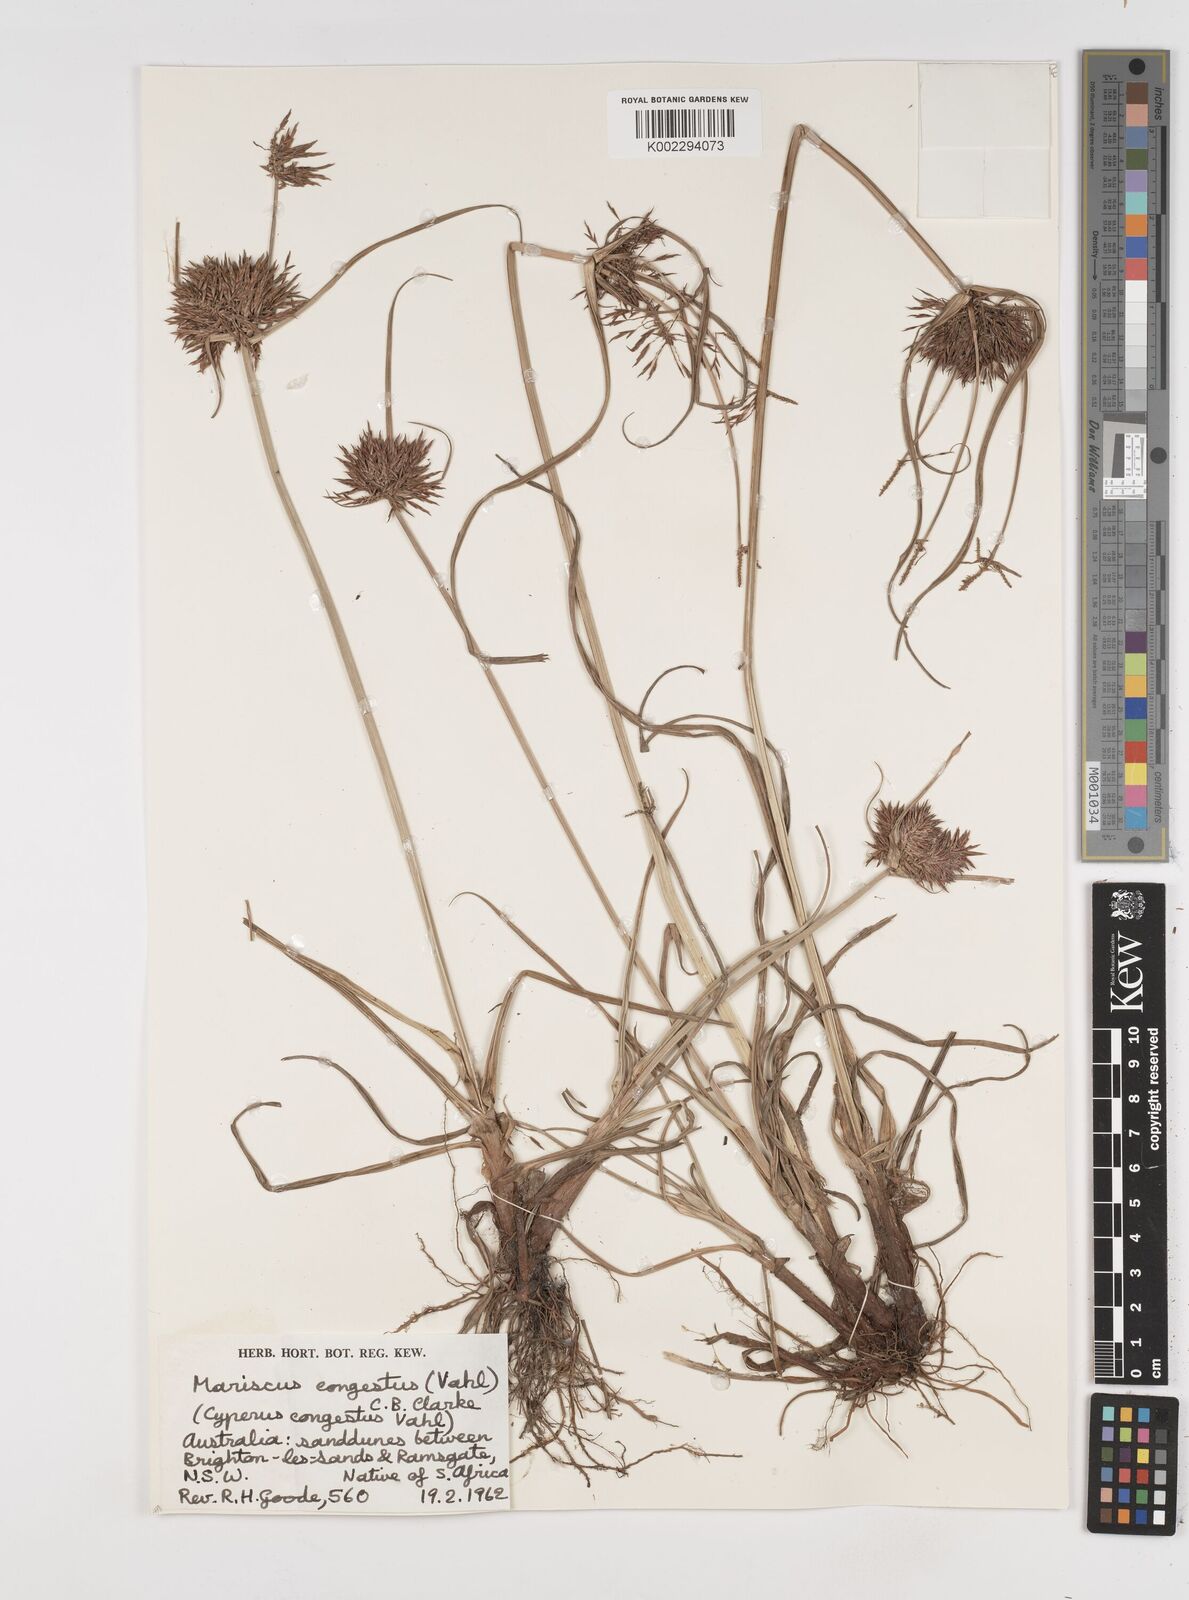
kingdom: Plantae
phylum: Tracheophyta
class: Liliopsida
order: Poales
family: Cyperaceae
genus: Cyperus
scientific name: Cyperus congestus
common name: Dense flat sedge
